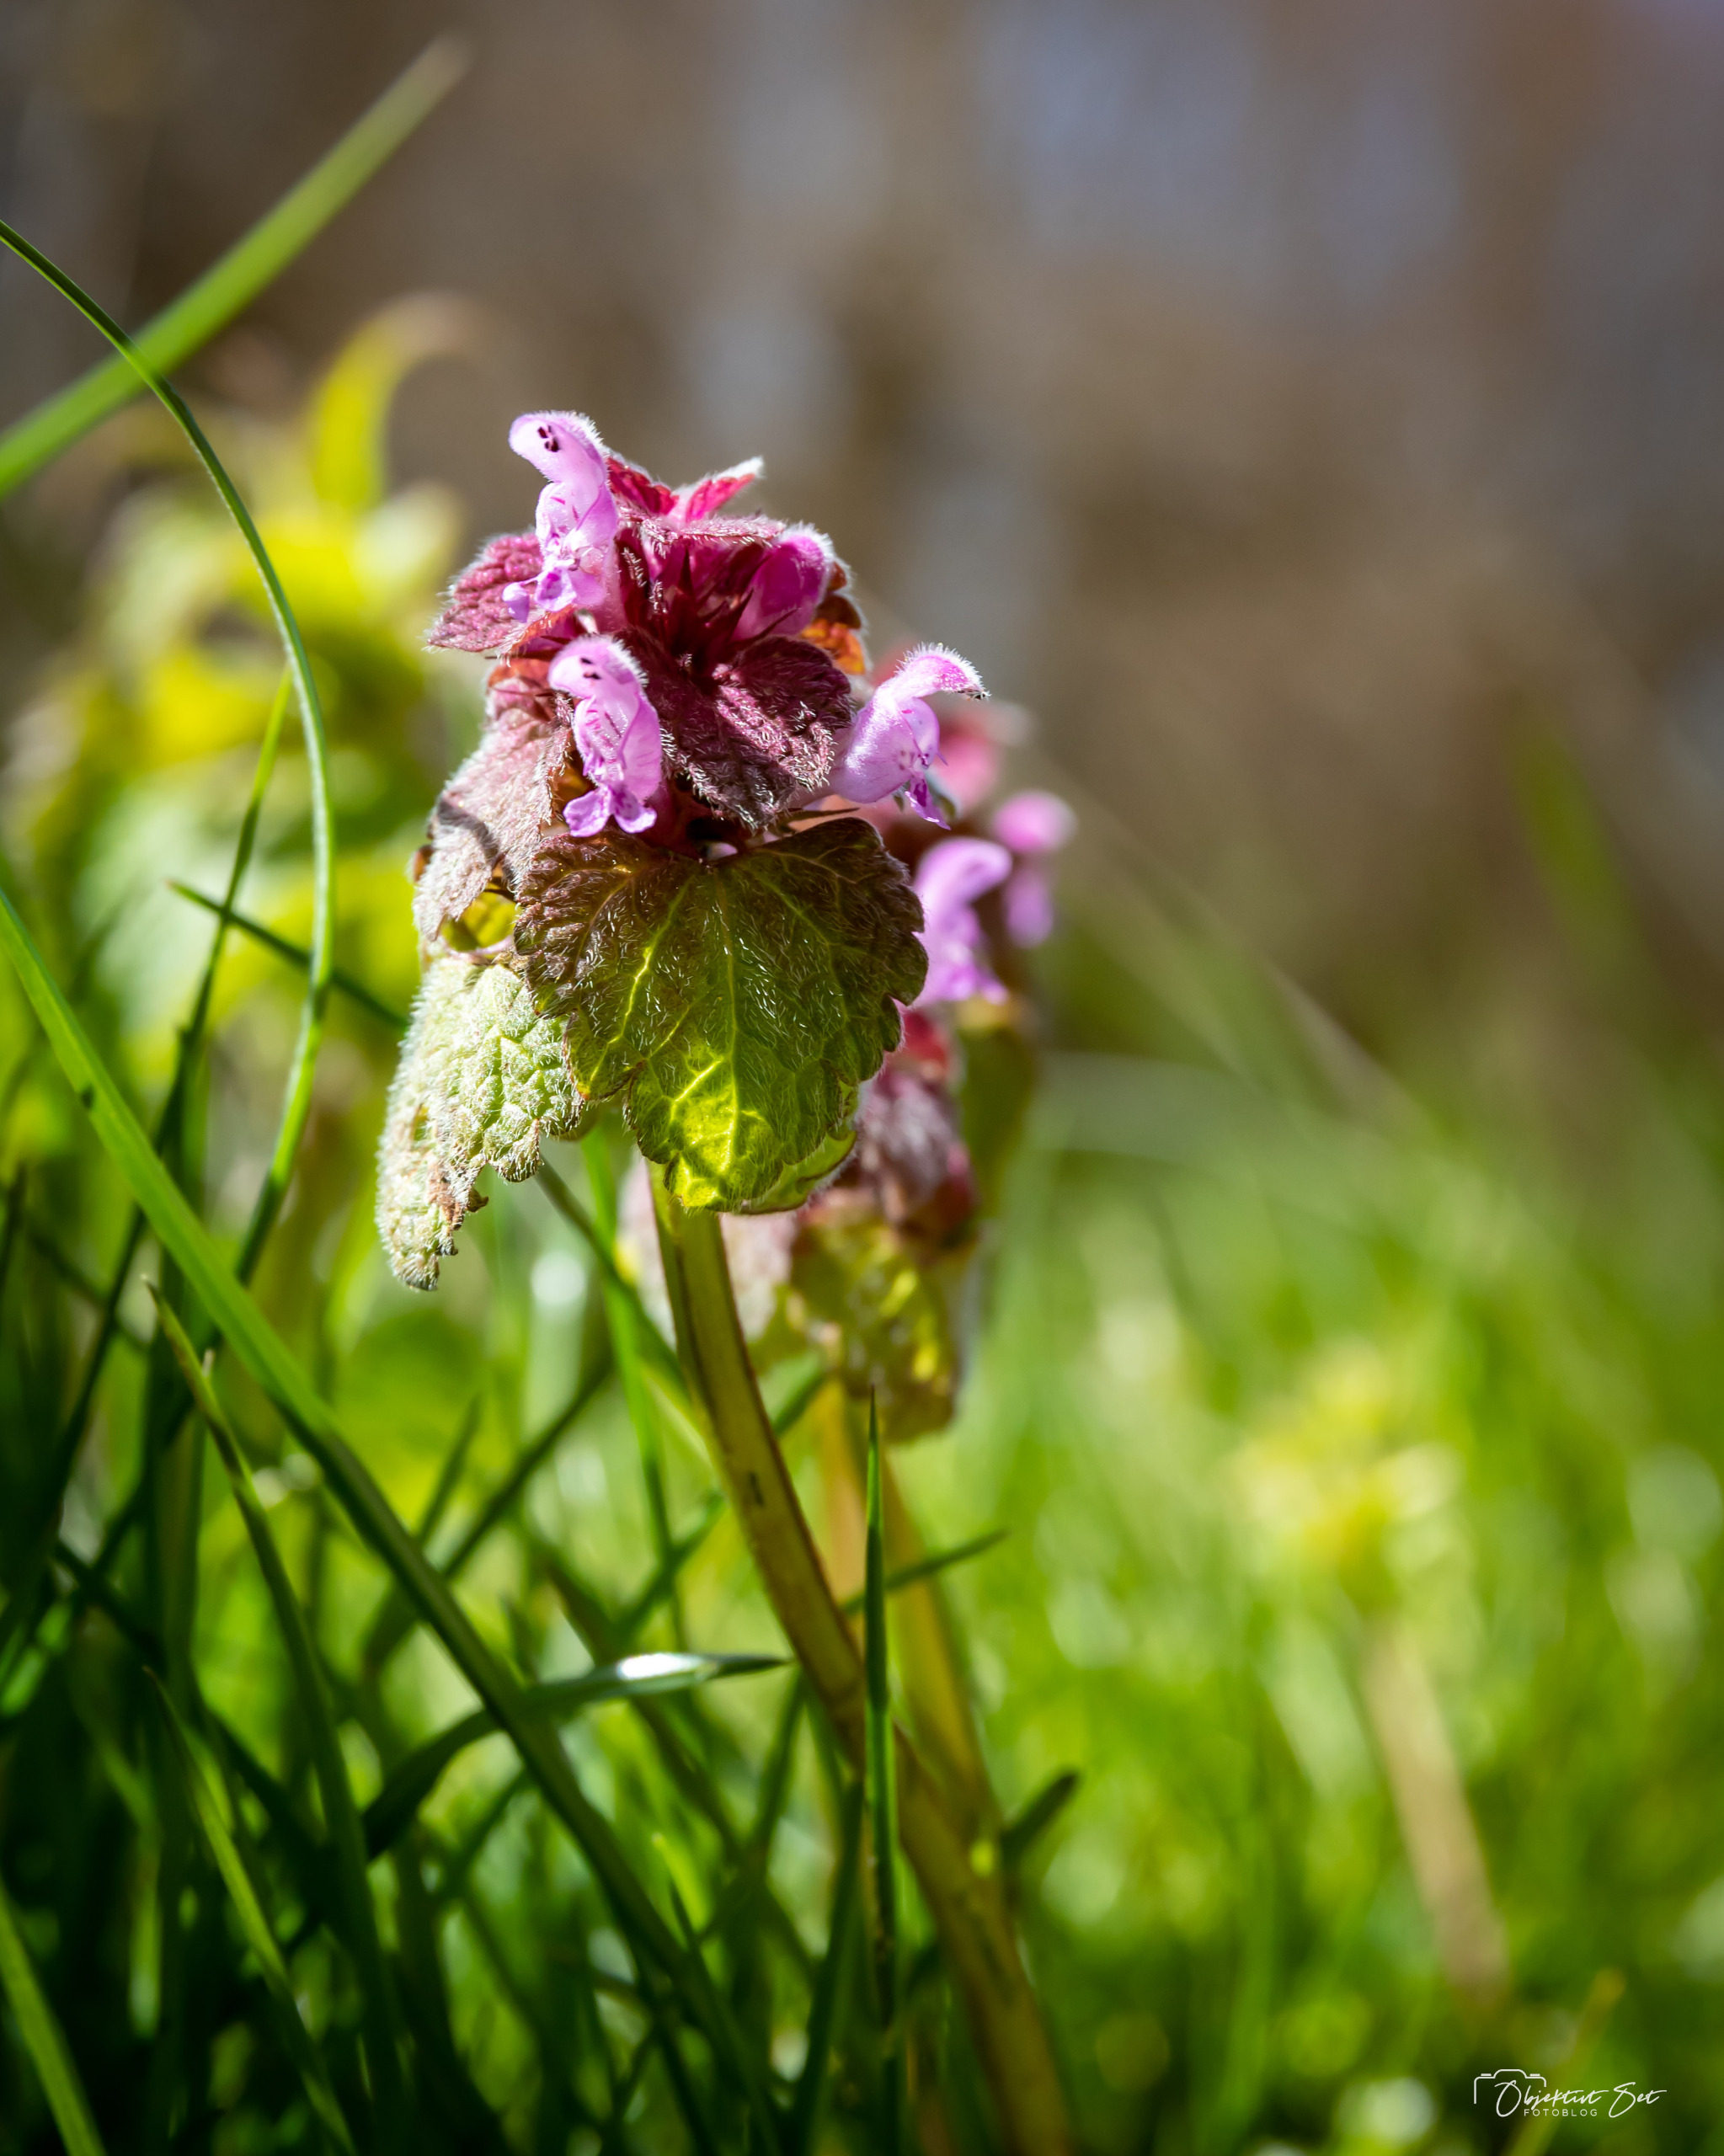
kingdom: Plantae
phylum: Tracheophyta
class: Magnoliopsida
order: Lamiales
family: Lamiaceae
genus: Lamium
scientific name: Lamium purpureum
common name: Rød tvetand
